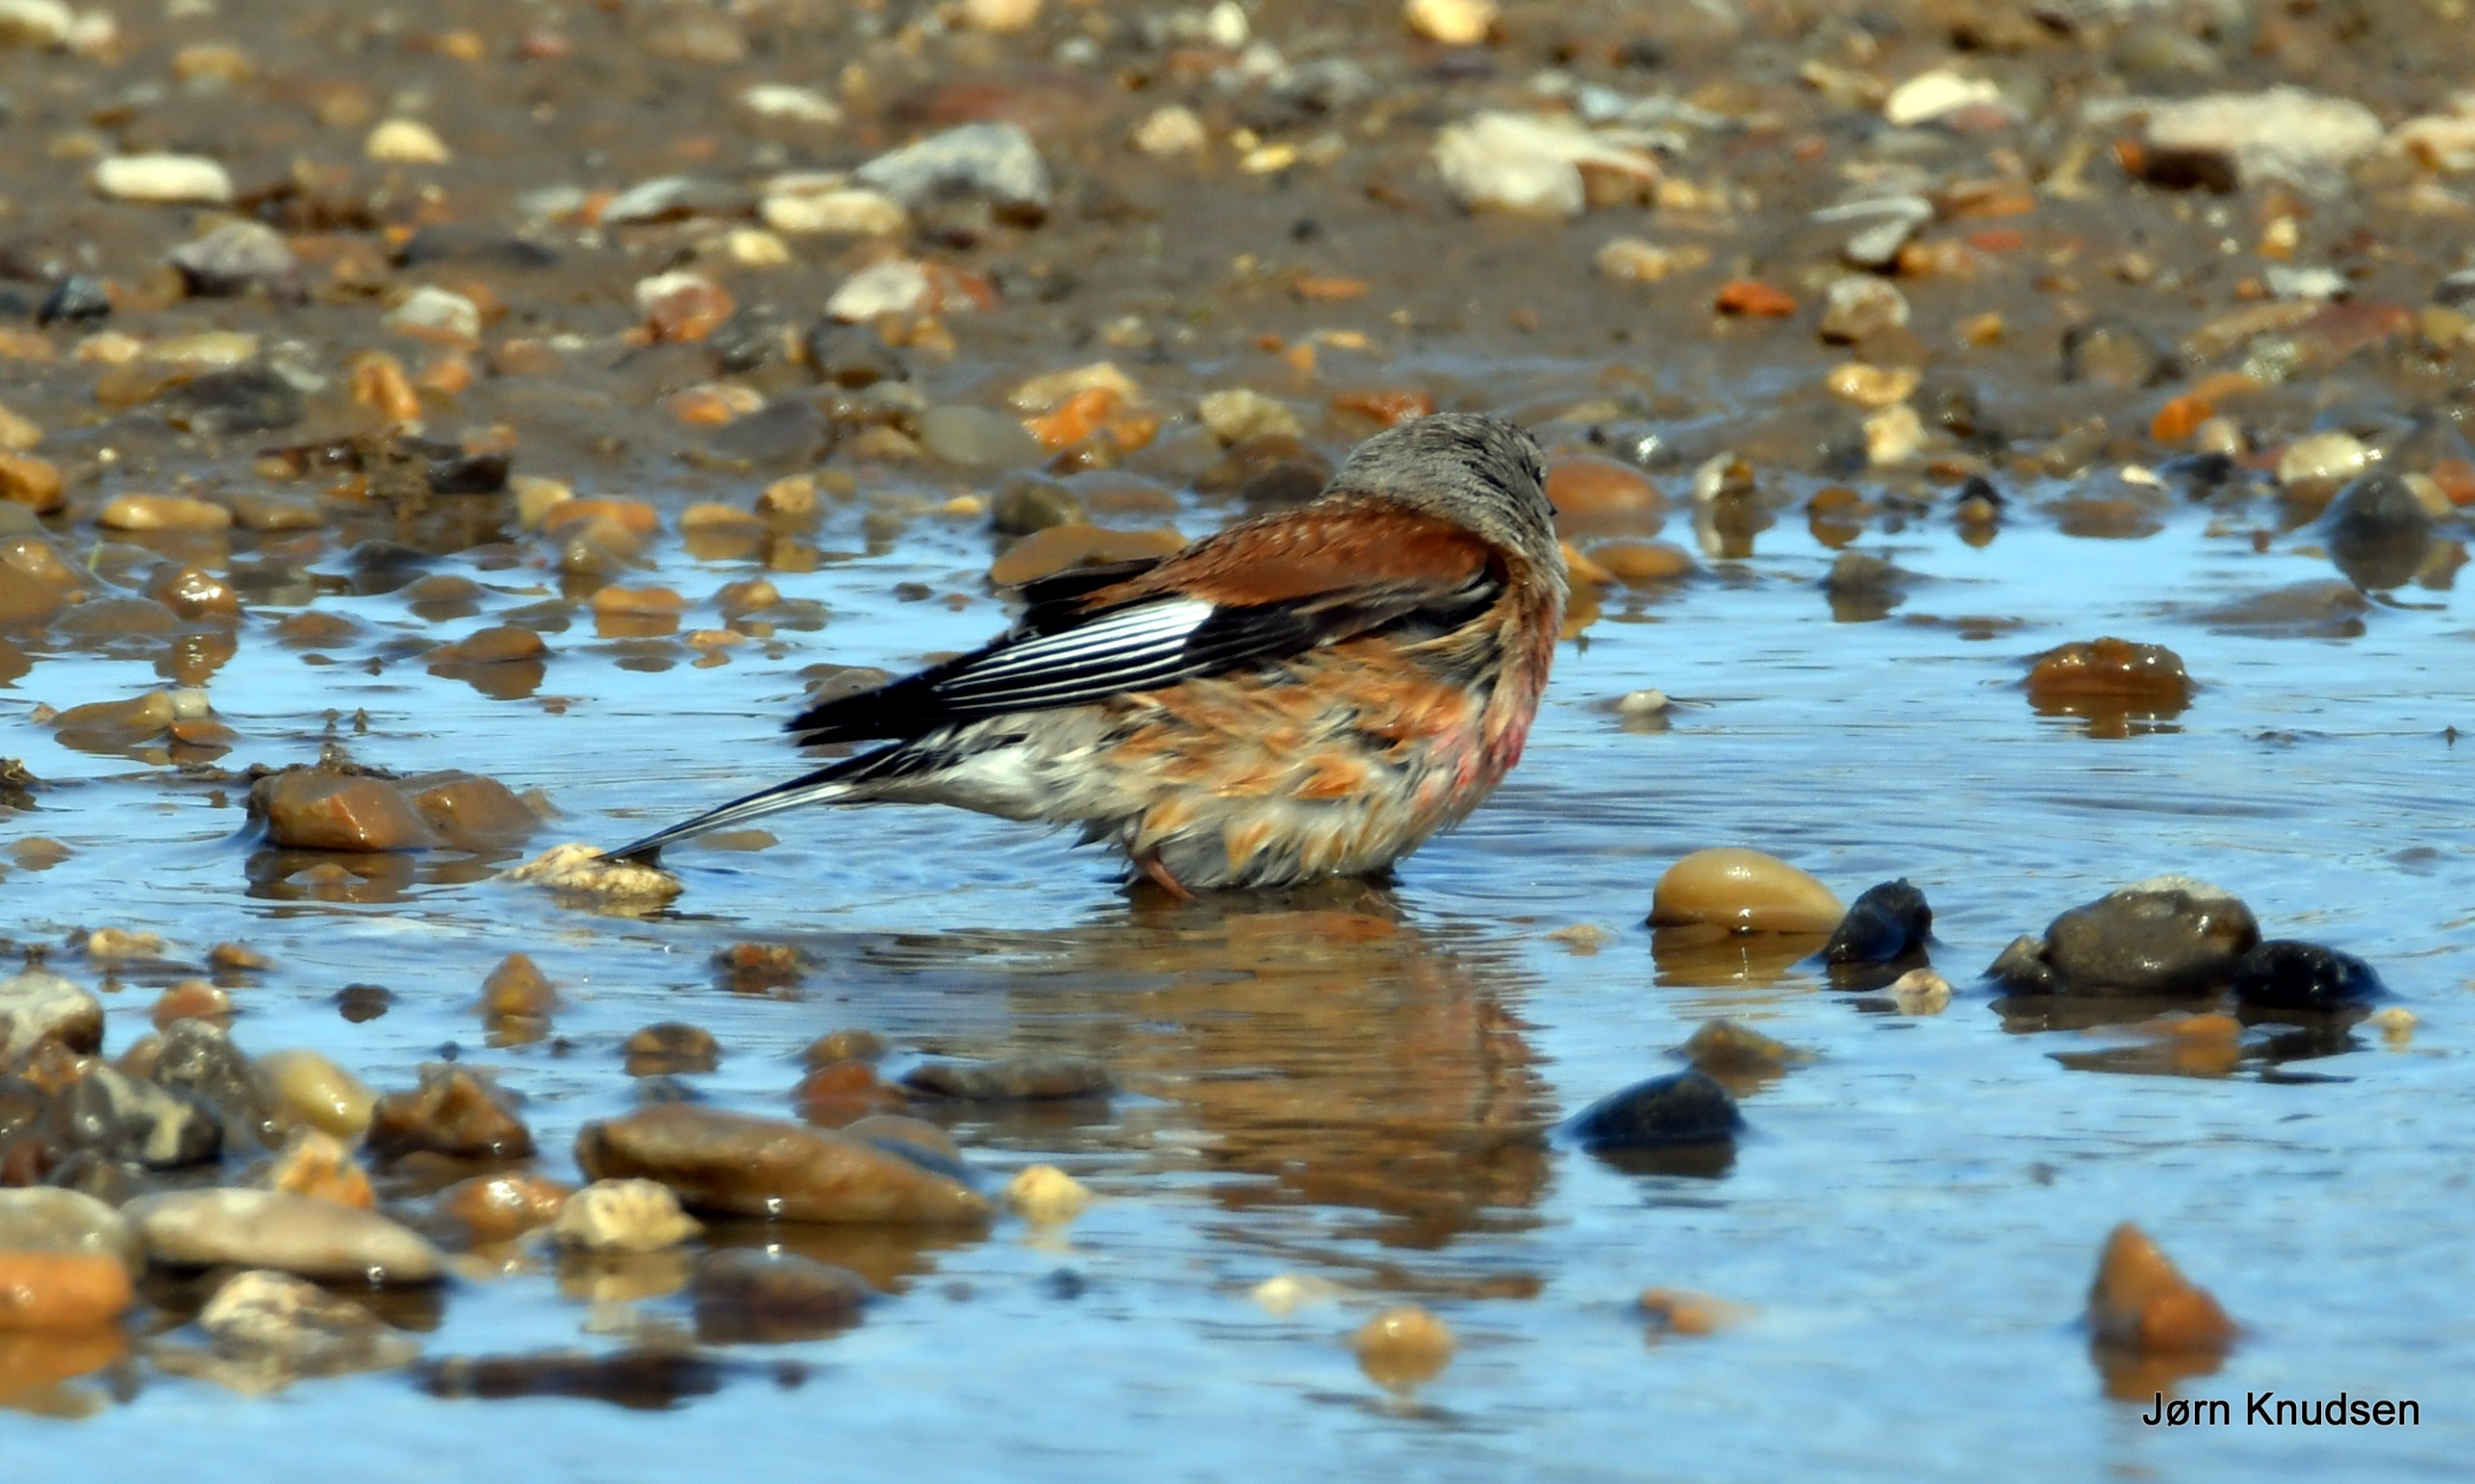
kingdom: Animalia
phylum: Chordata
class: Aves
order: Passeriformes
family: Fringillidae
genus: Linaria
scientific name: Linaria cannabina
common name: Tornirisk
